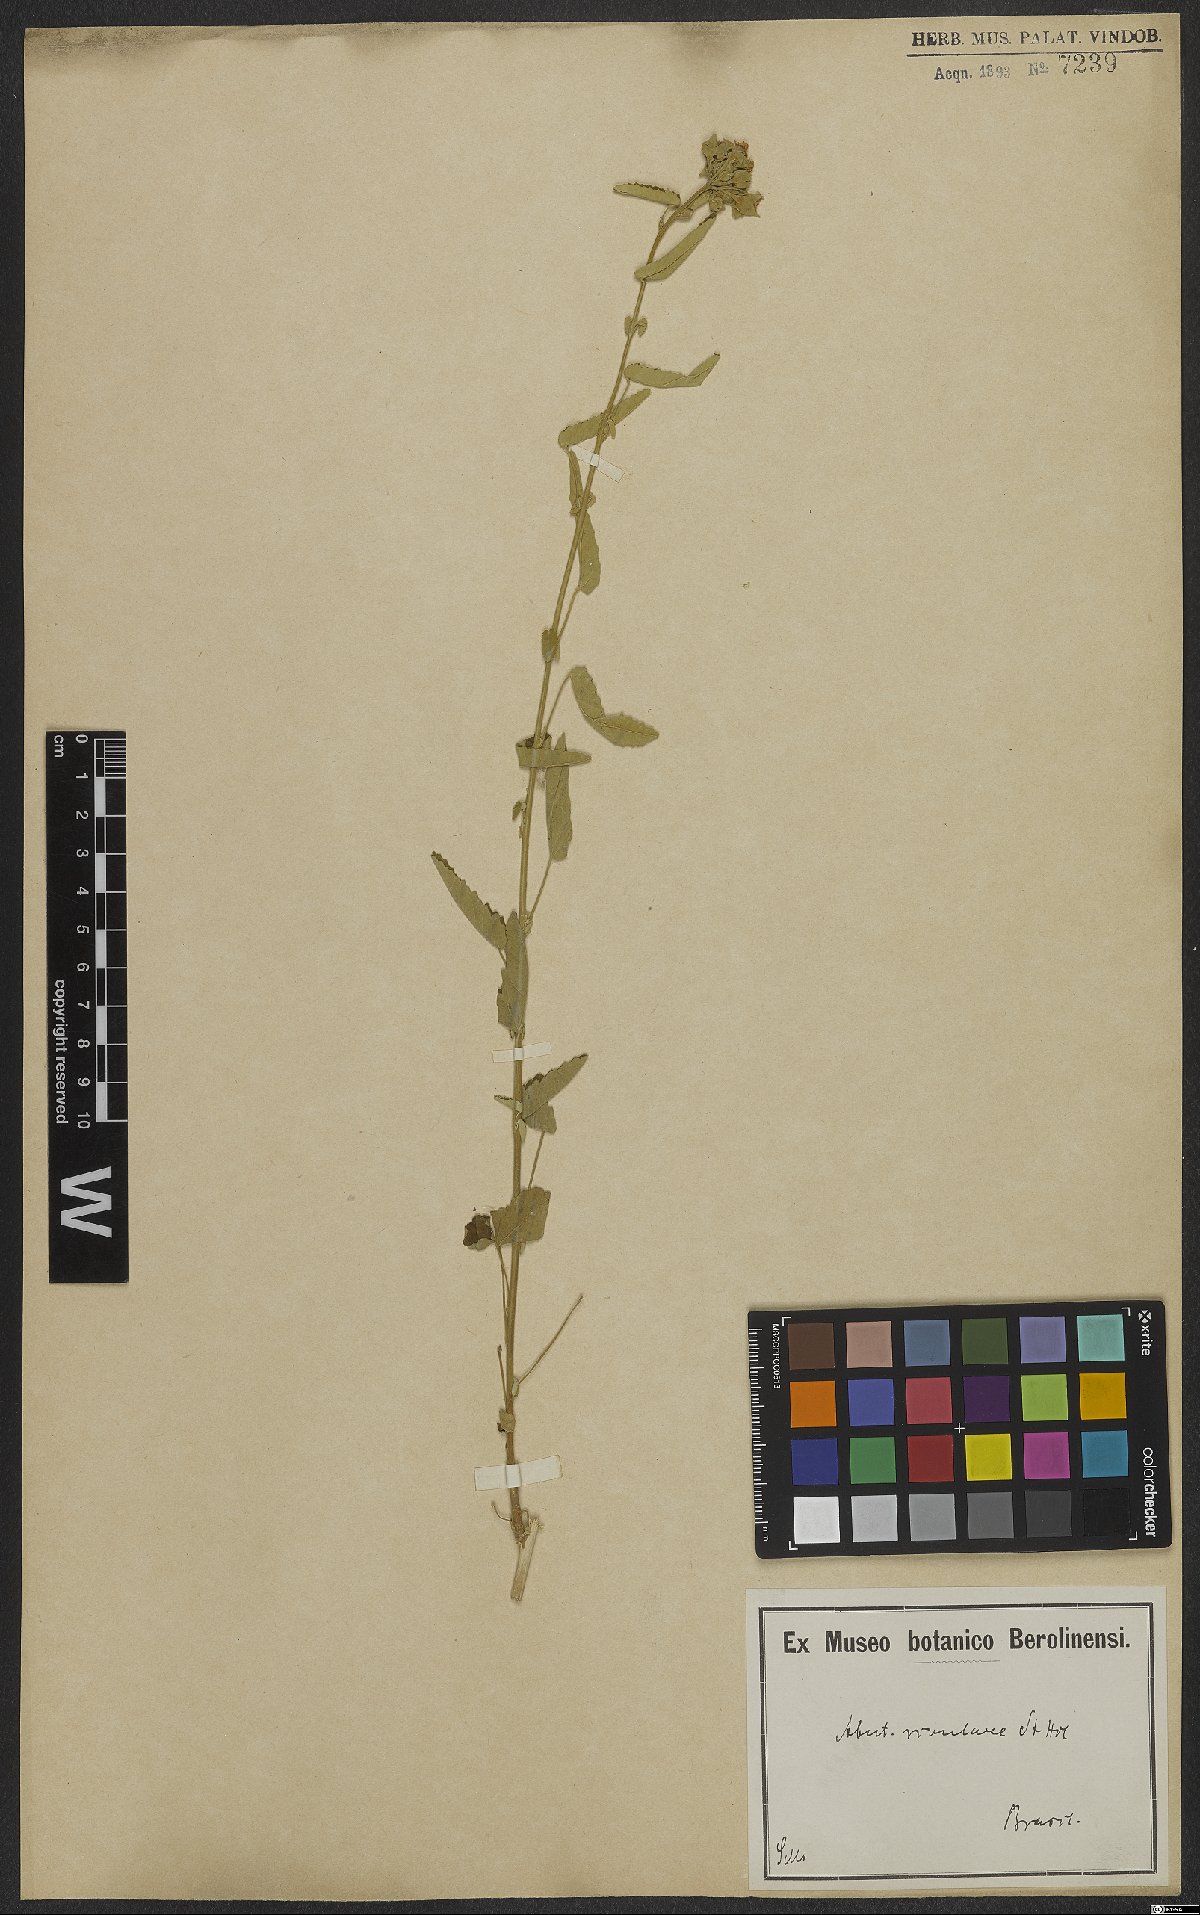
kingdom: Plantae
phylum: Tracheophyta
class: Magnoliopsida
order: Malvales
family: Malvaceae
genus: Abutilon
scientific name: Abutilon affine
